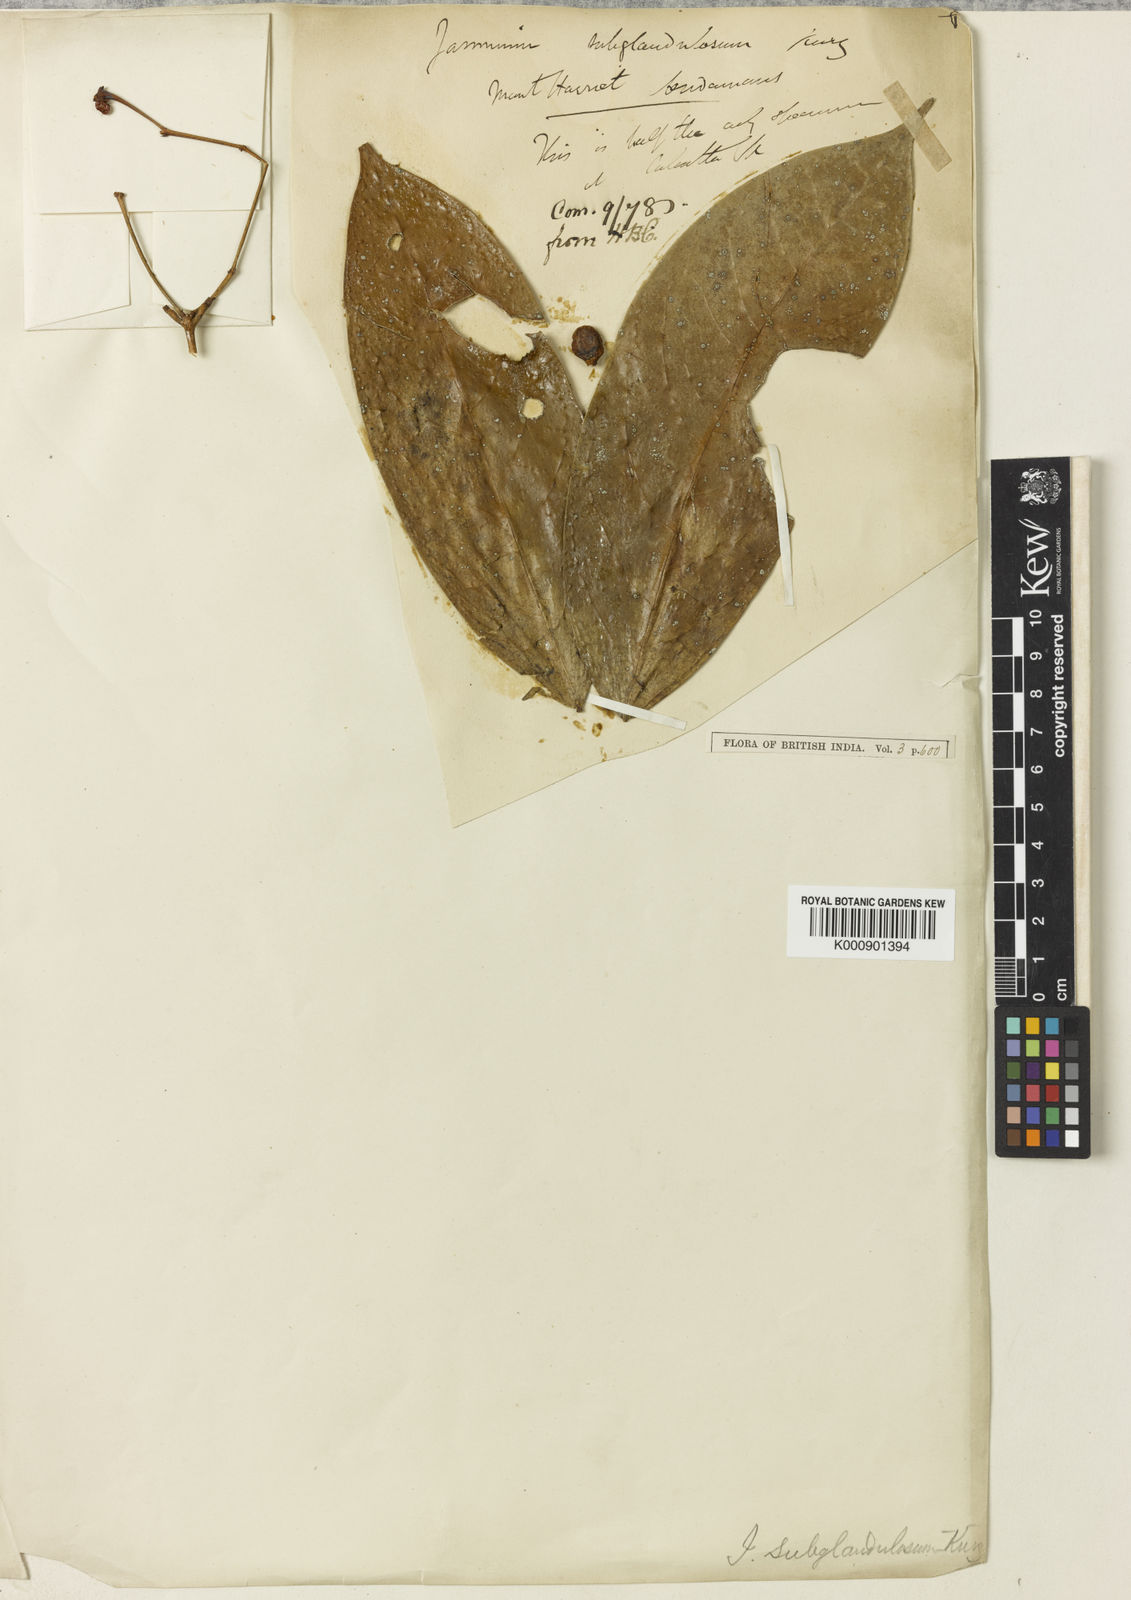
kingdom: Plantae
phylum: Tracheophyta
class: Magnoliopsida
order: Lamiales
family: Oleaceae
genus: Jasminum
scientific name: Jasminum subglandulosum
